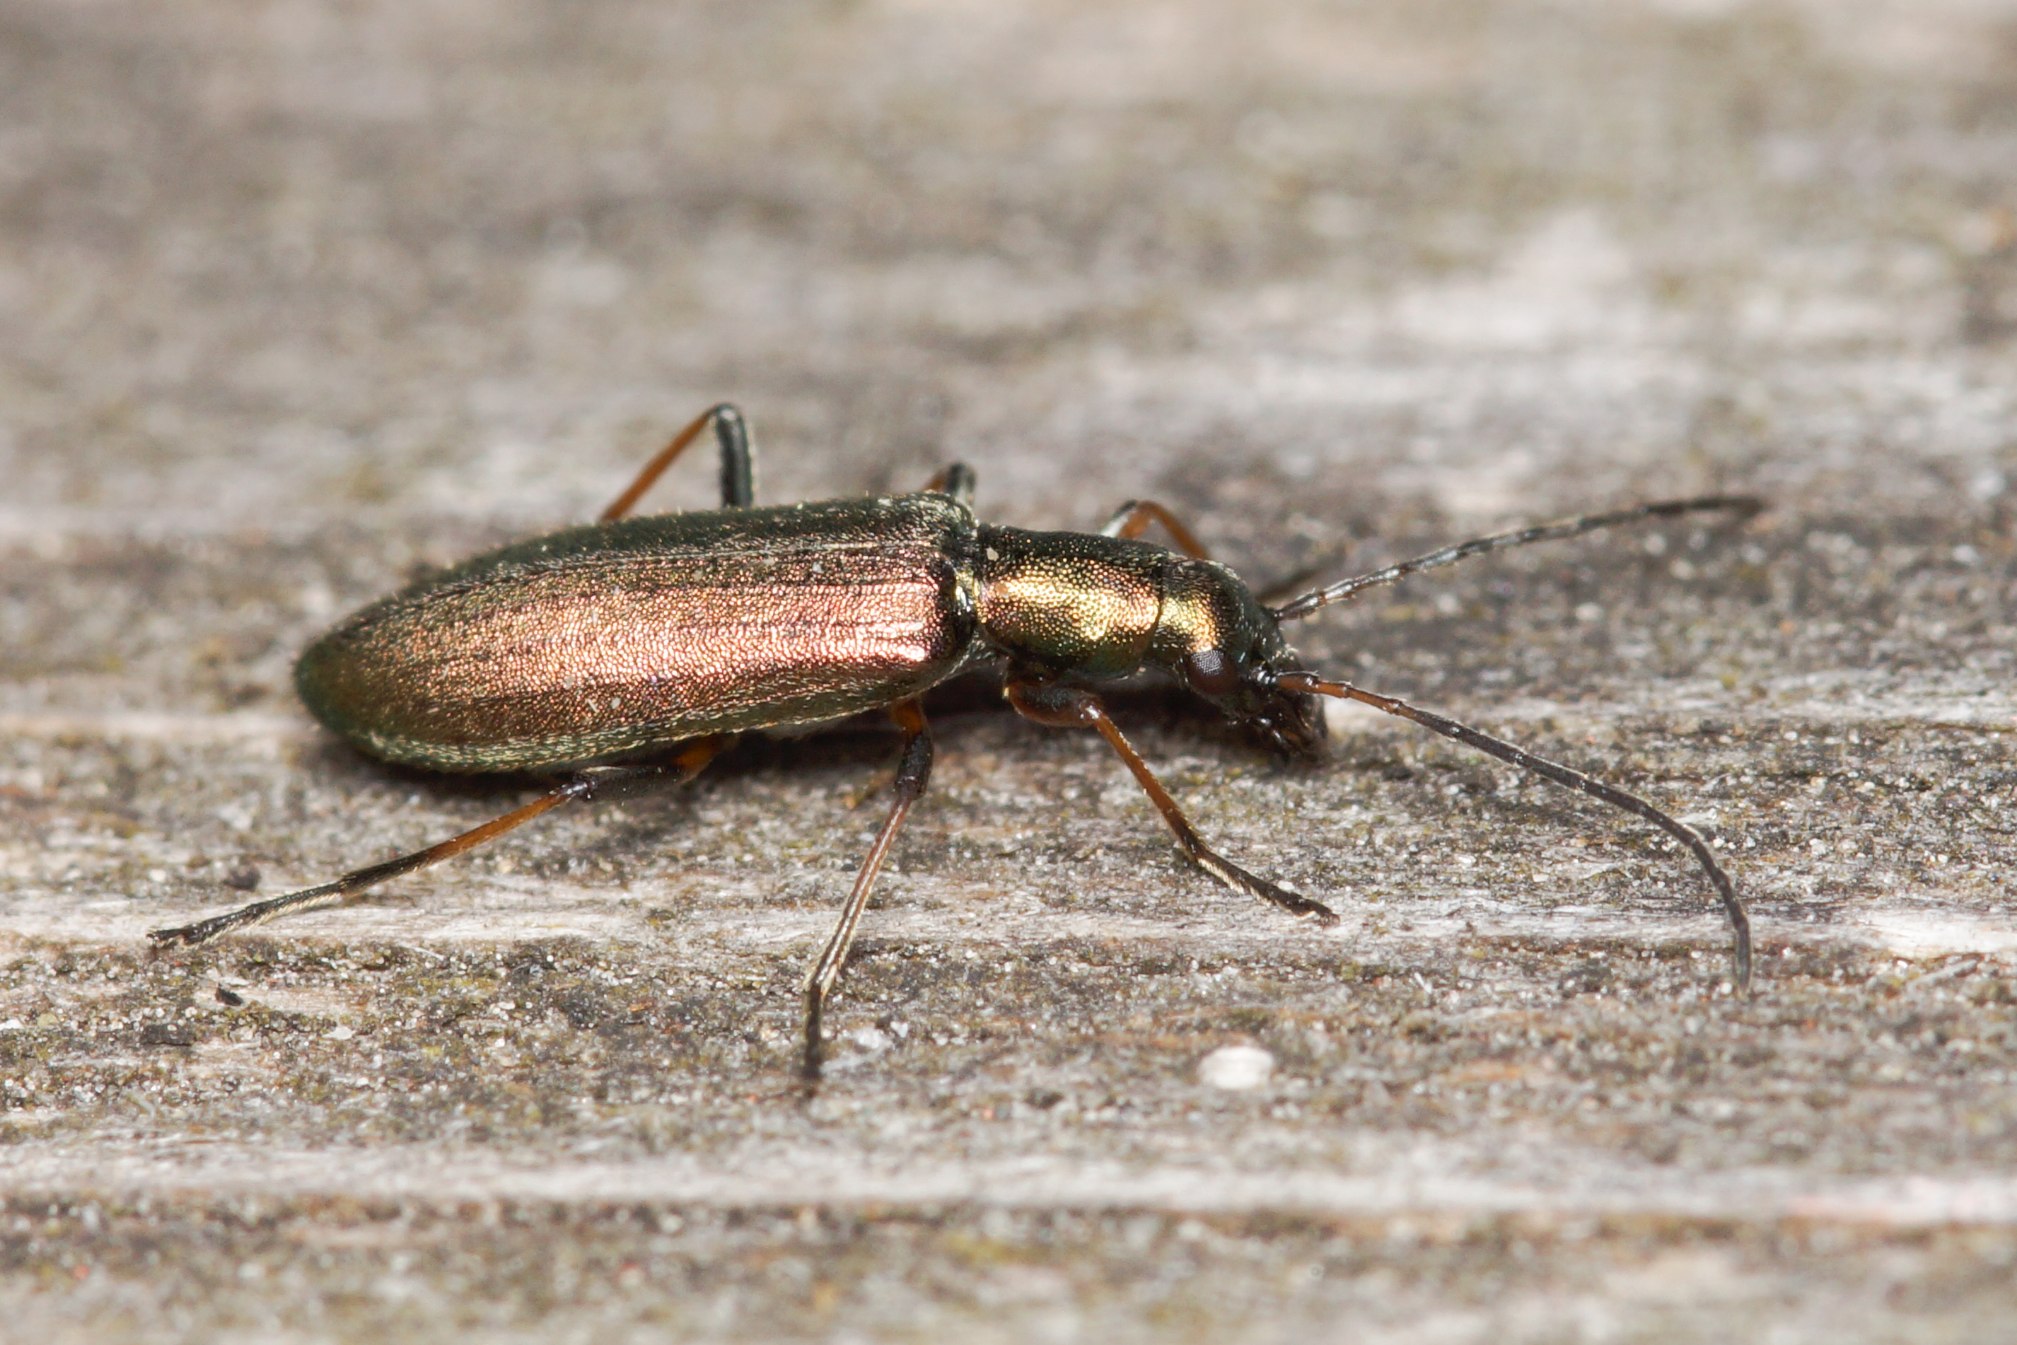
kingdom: Animalia
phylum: Arthropoda
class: Insecta
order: Coleoptera
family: Oedemeridae
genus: Chrysanthia
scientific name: Chrysanthia geniculata
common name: Grøn solbille
